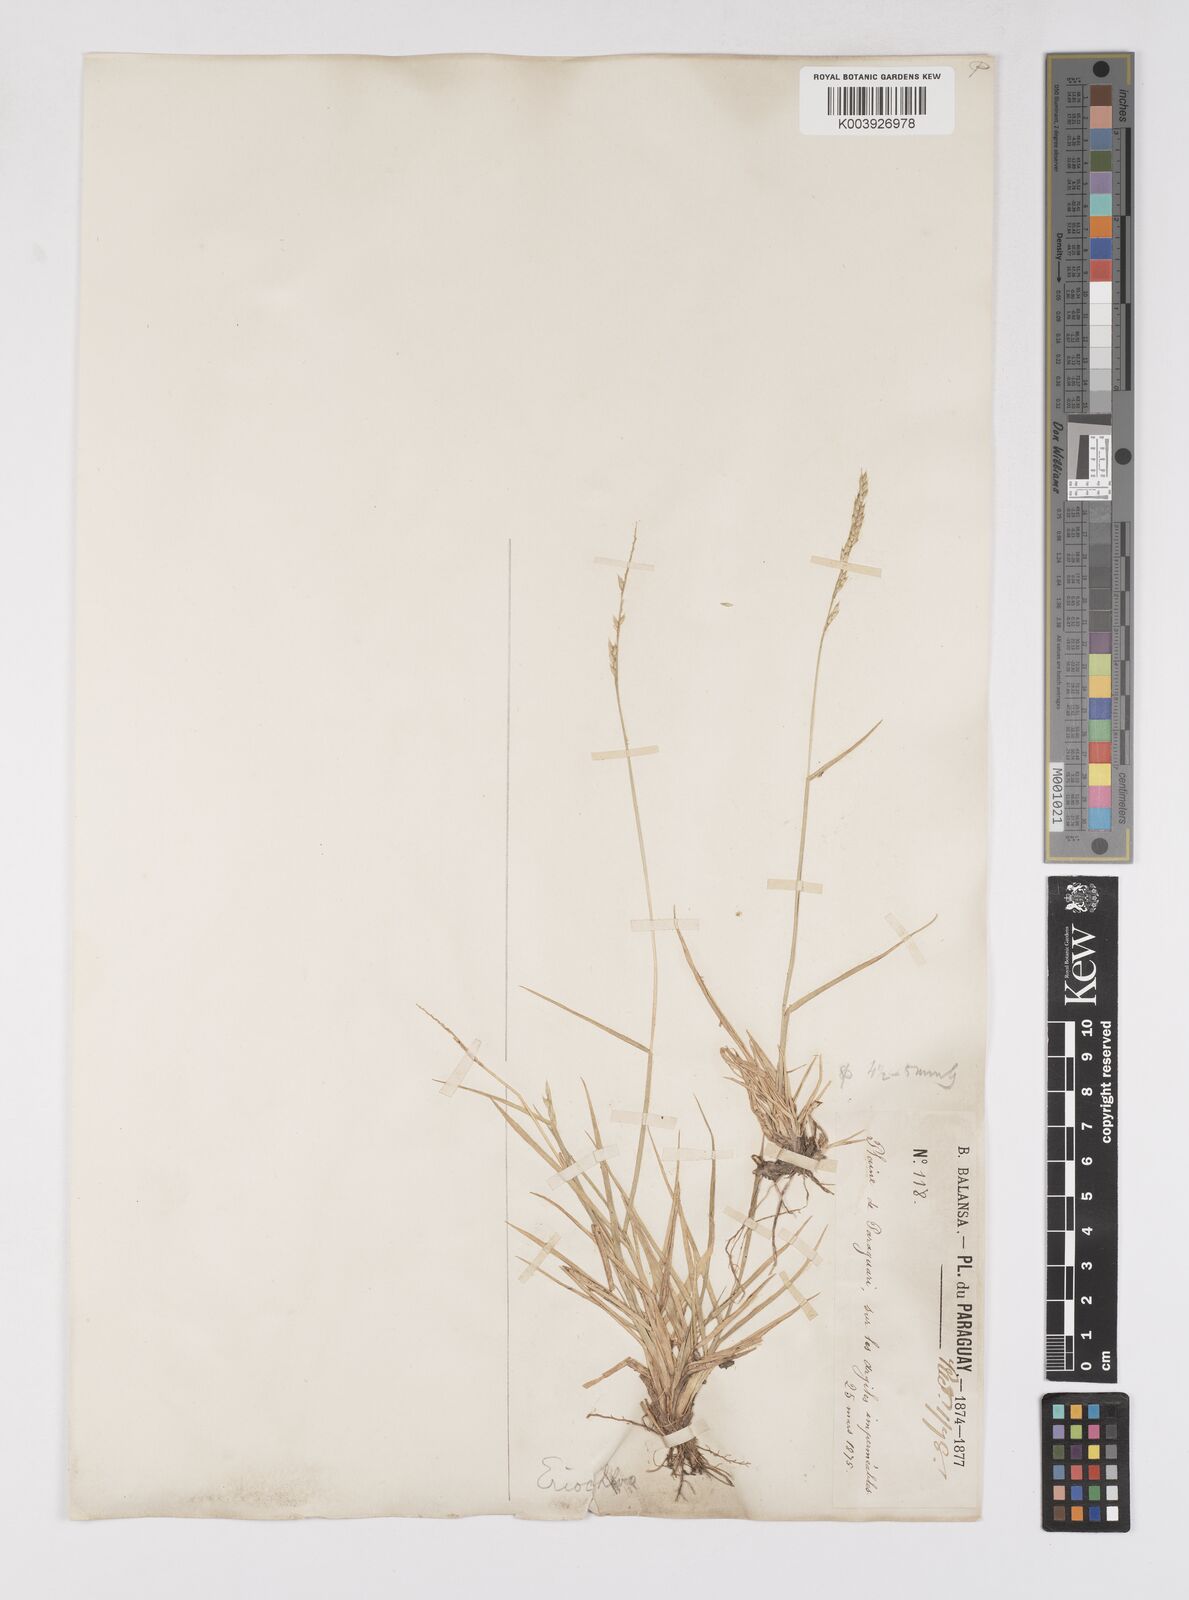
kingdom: Plantae
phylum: Tracheophyta
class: Liliopsida
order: Poales
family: Poaceae
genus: Eriochloa
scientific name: Eriochloa punctata
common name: Louisiana cupgrass
